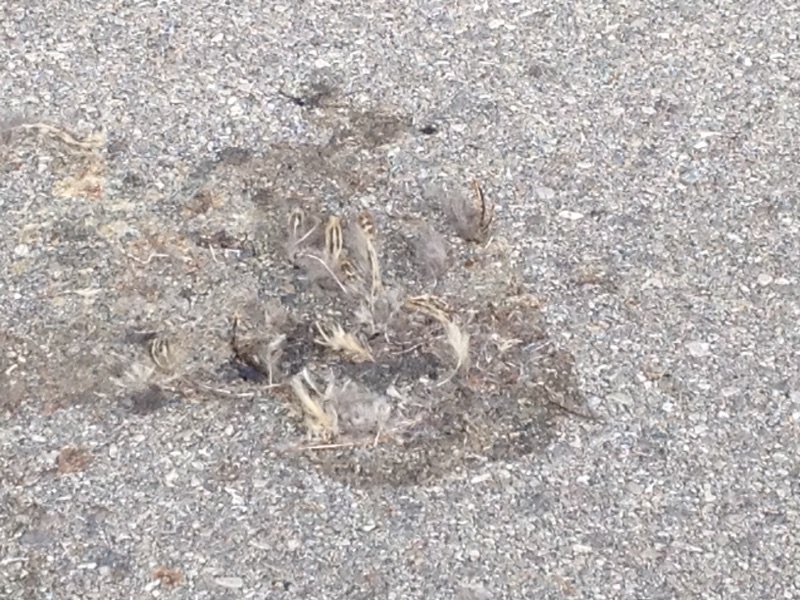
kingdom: Animalia
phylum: Chordata
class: Aves
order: Galliformes
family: Phasianidae
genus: Phasianus
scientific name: Phasianus colchicus
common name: Common pheasant
